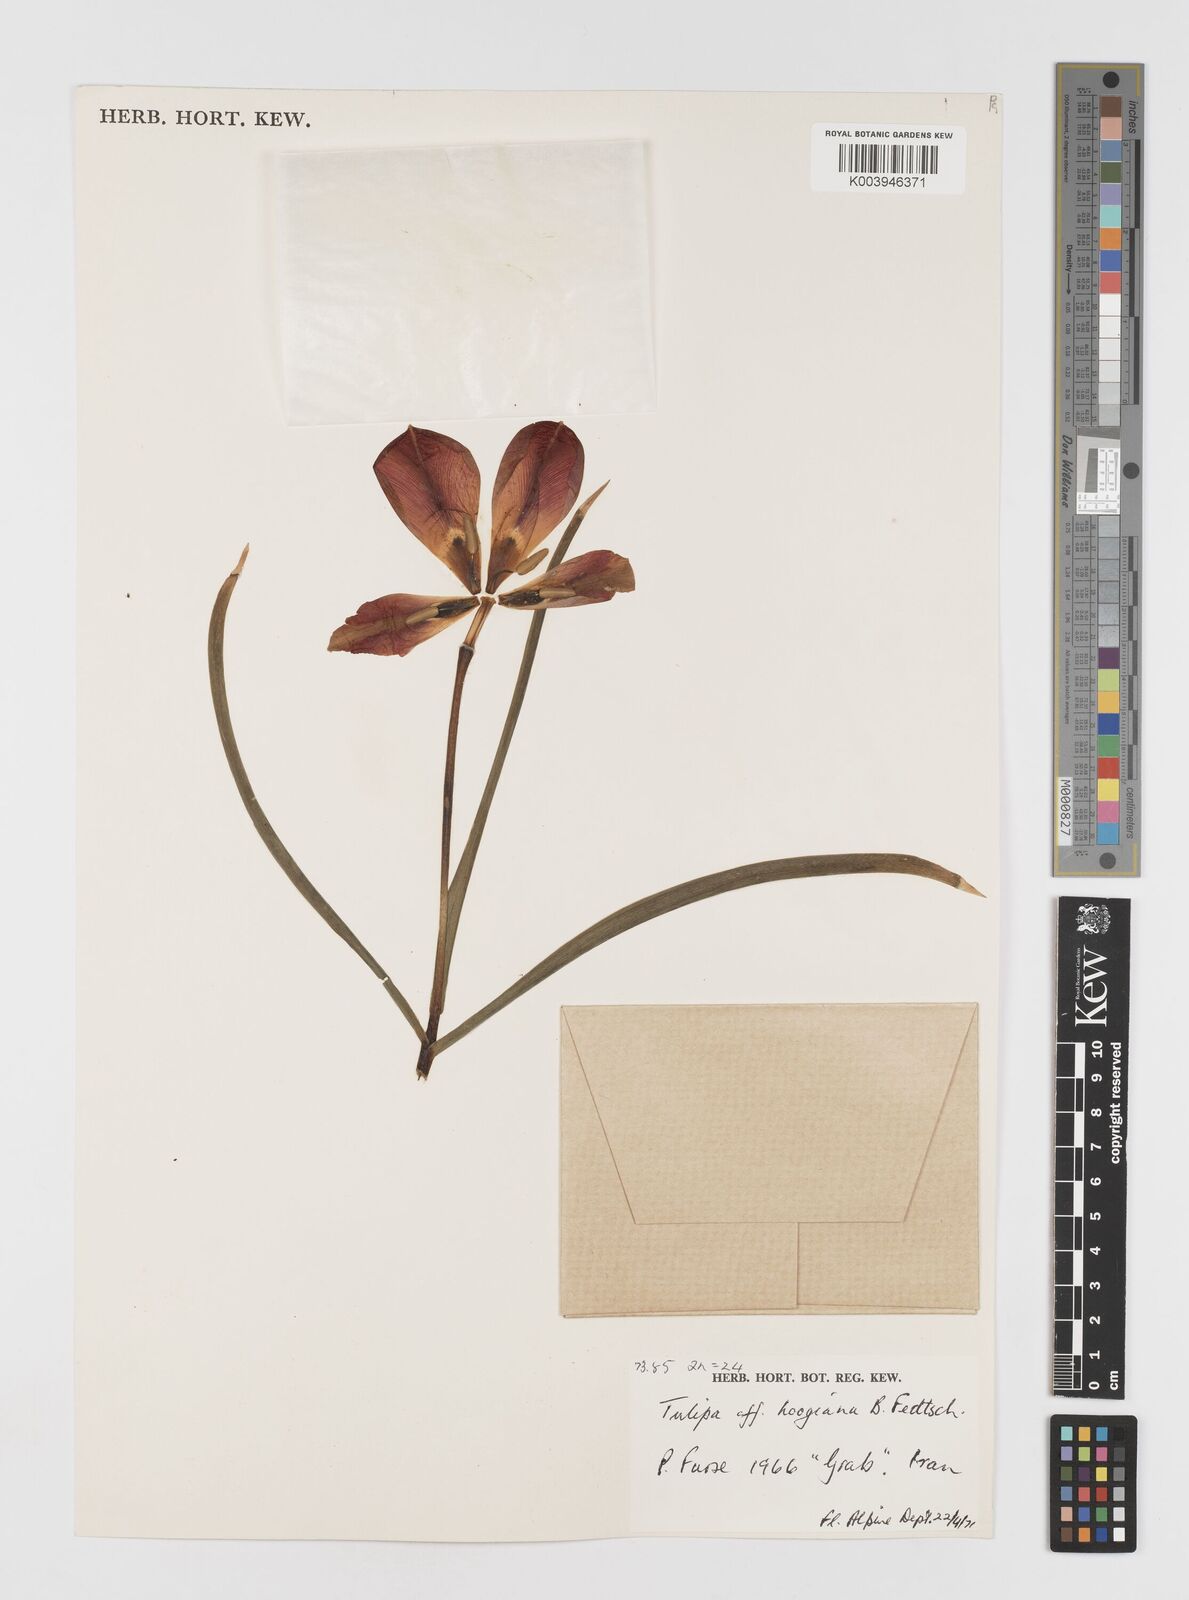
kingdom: Plantae
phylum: Tracheophyta
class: Liliopsida
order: Liliales
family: Liliaceae
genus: Tulipa
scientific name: Tulipa hoogiana
